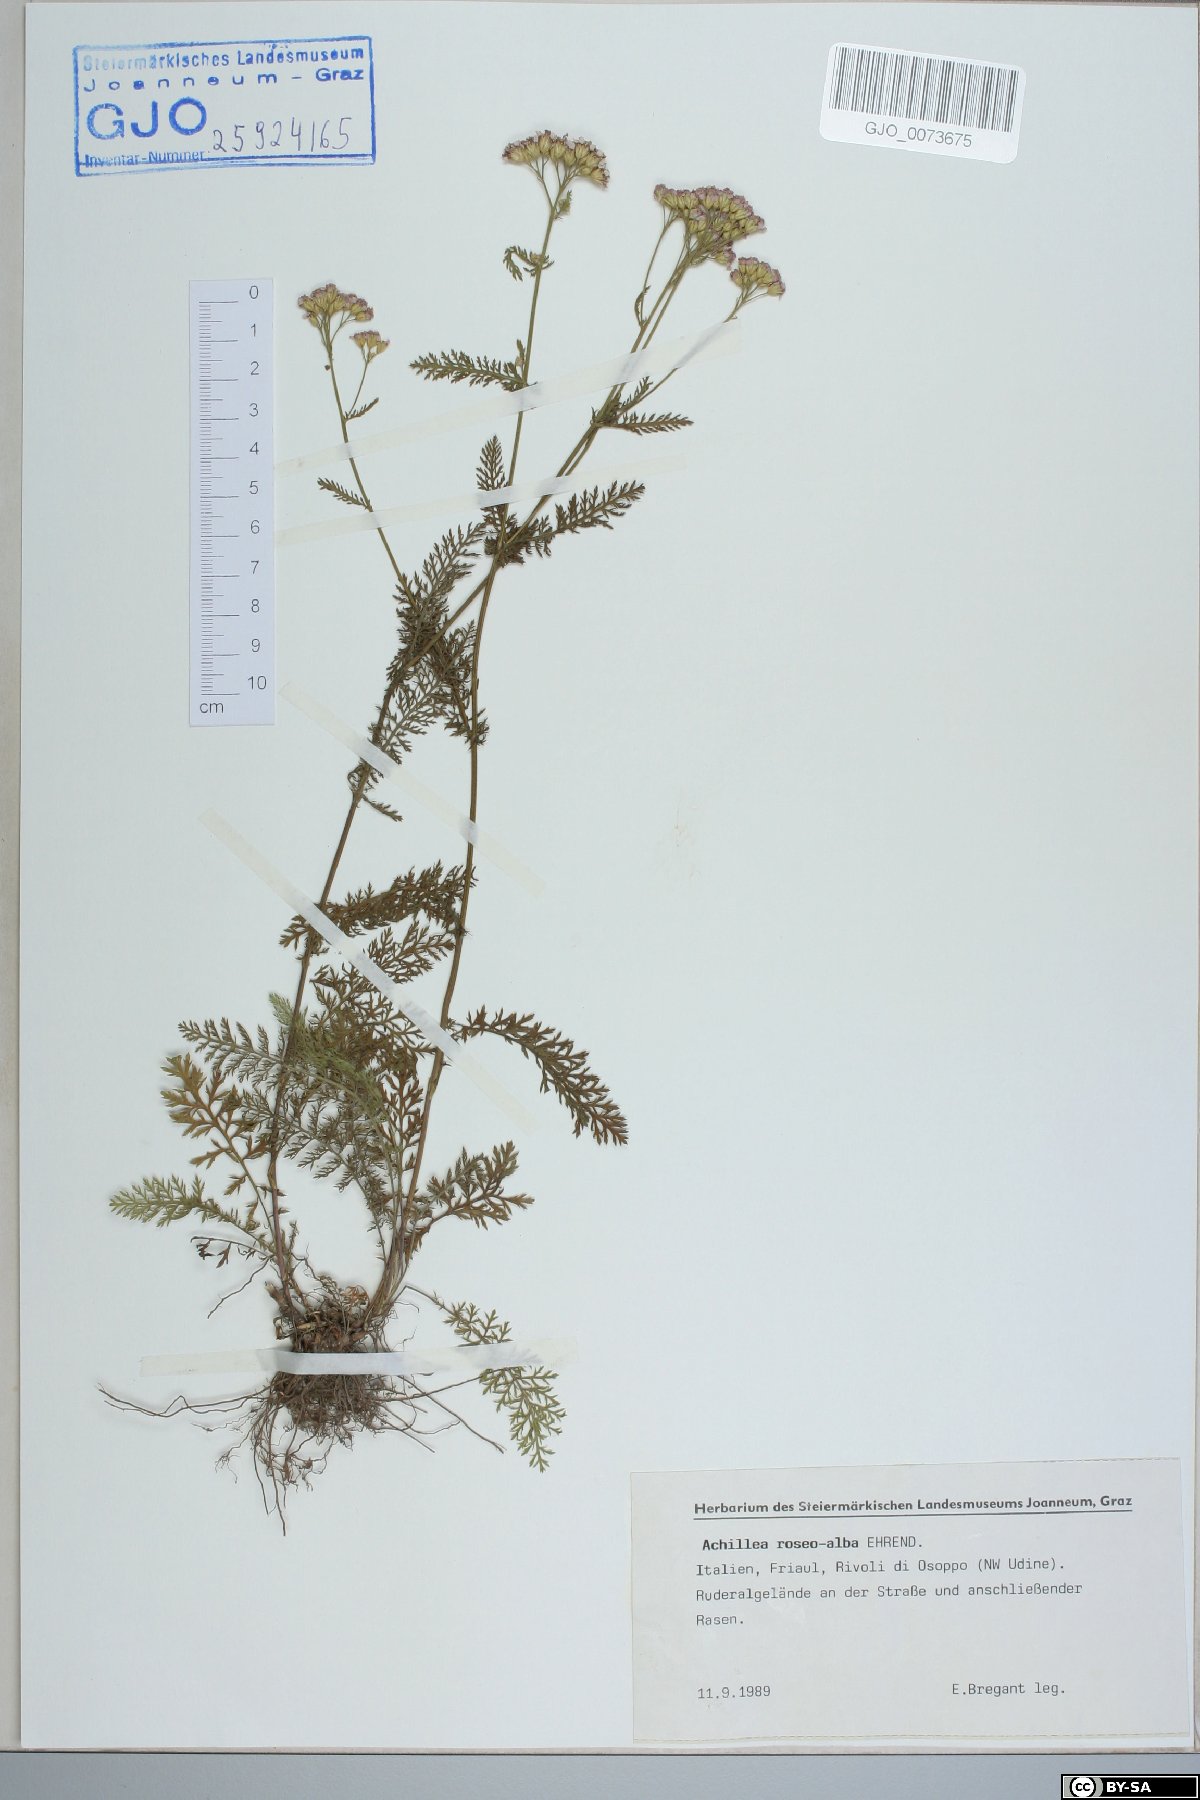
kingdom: Plantae
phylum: Tracheophyta
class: Magnoliopsida
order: Asterales
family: Asteraceae
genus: Achillea
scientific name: Achillea roseoalba
